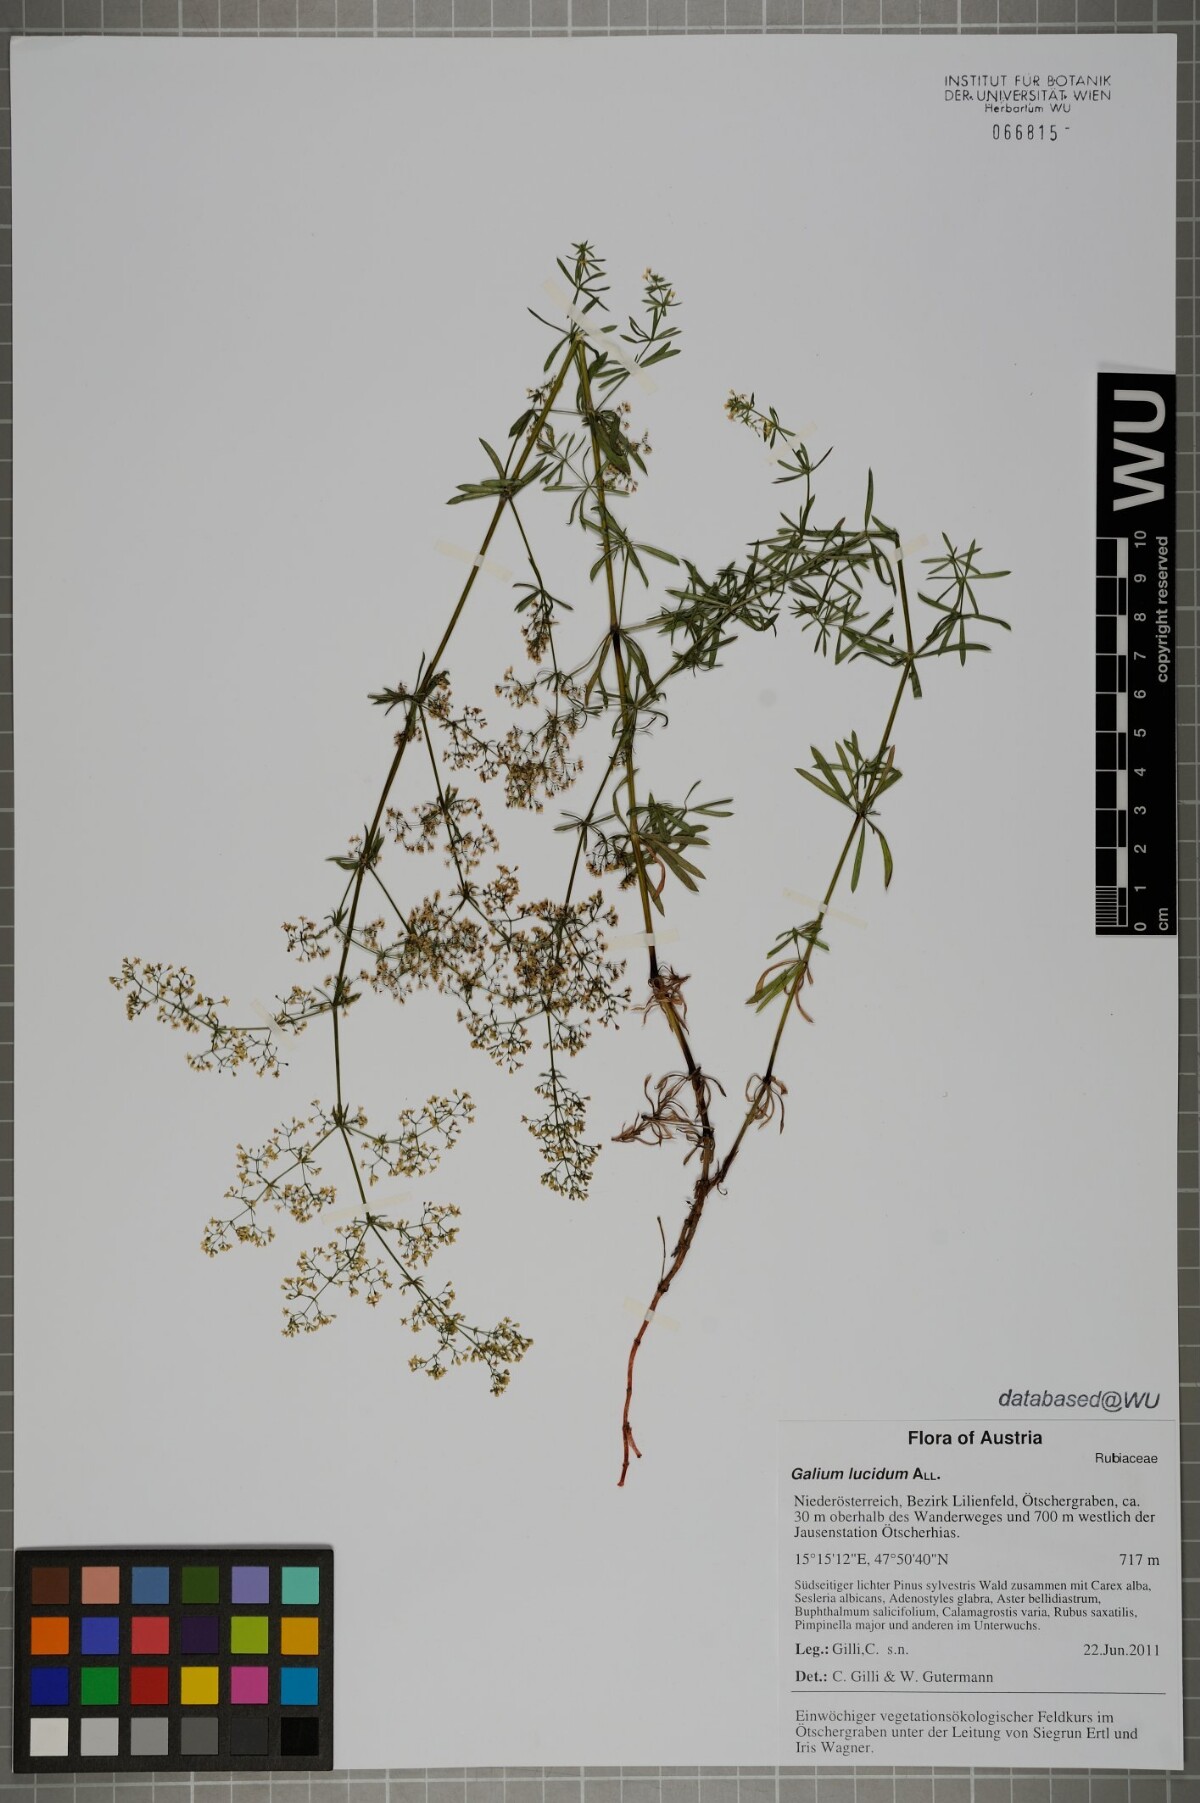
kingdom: Plantae
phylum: Tracheophyta
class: Magnoliopsida
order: Gentianales
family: Rubiaceae
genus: Galium
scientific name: Galium lucidum
